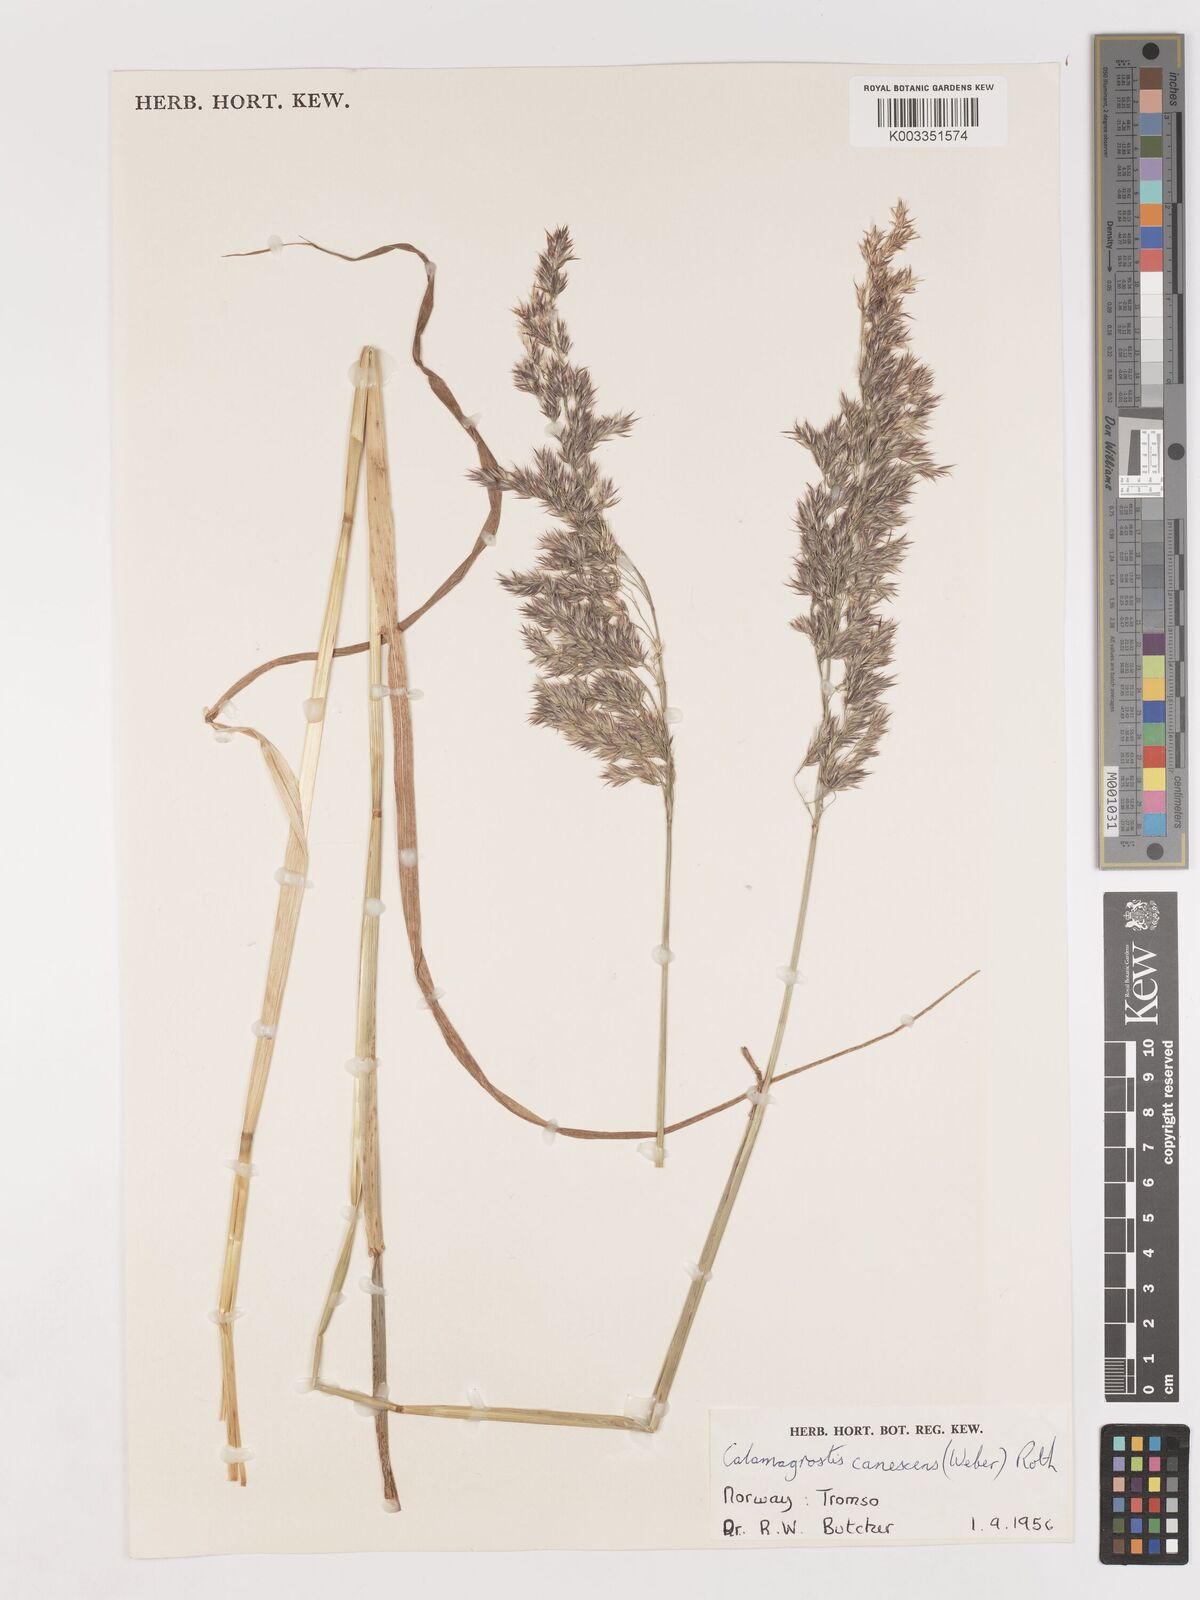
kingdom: Plantae
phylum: Tracheophyta
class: Liliopsida
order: Poales
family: Poaceae
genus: Calamagrostis
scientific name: Calamagrostis canescens
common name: Purple small-reed
